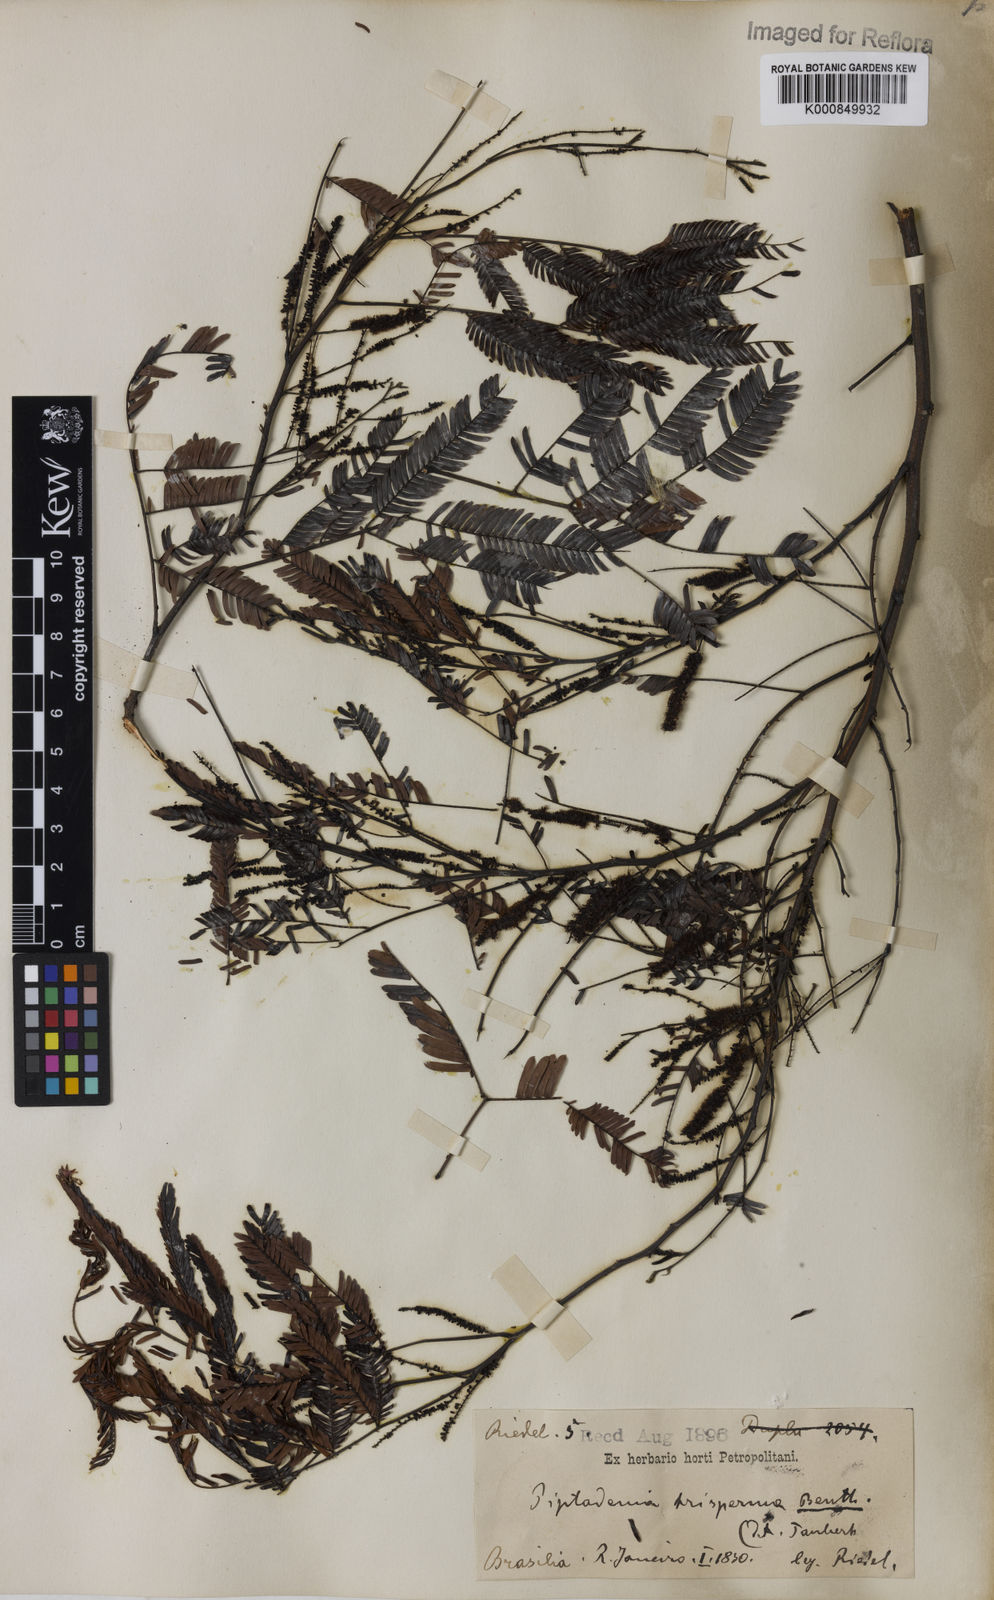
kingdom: Plantae
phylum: Tracheophyta
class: Magnoliopsida
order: Fabales
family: Fabaceae
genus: Piptadenia
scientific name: Piptadenia trisperma
